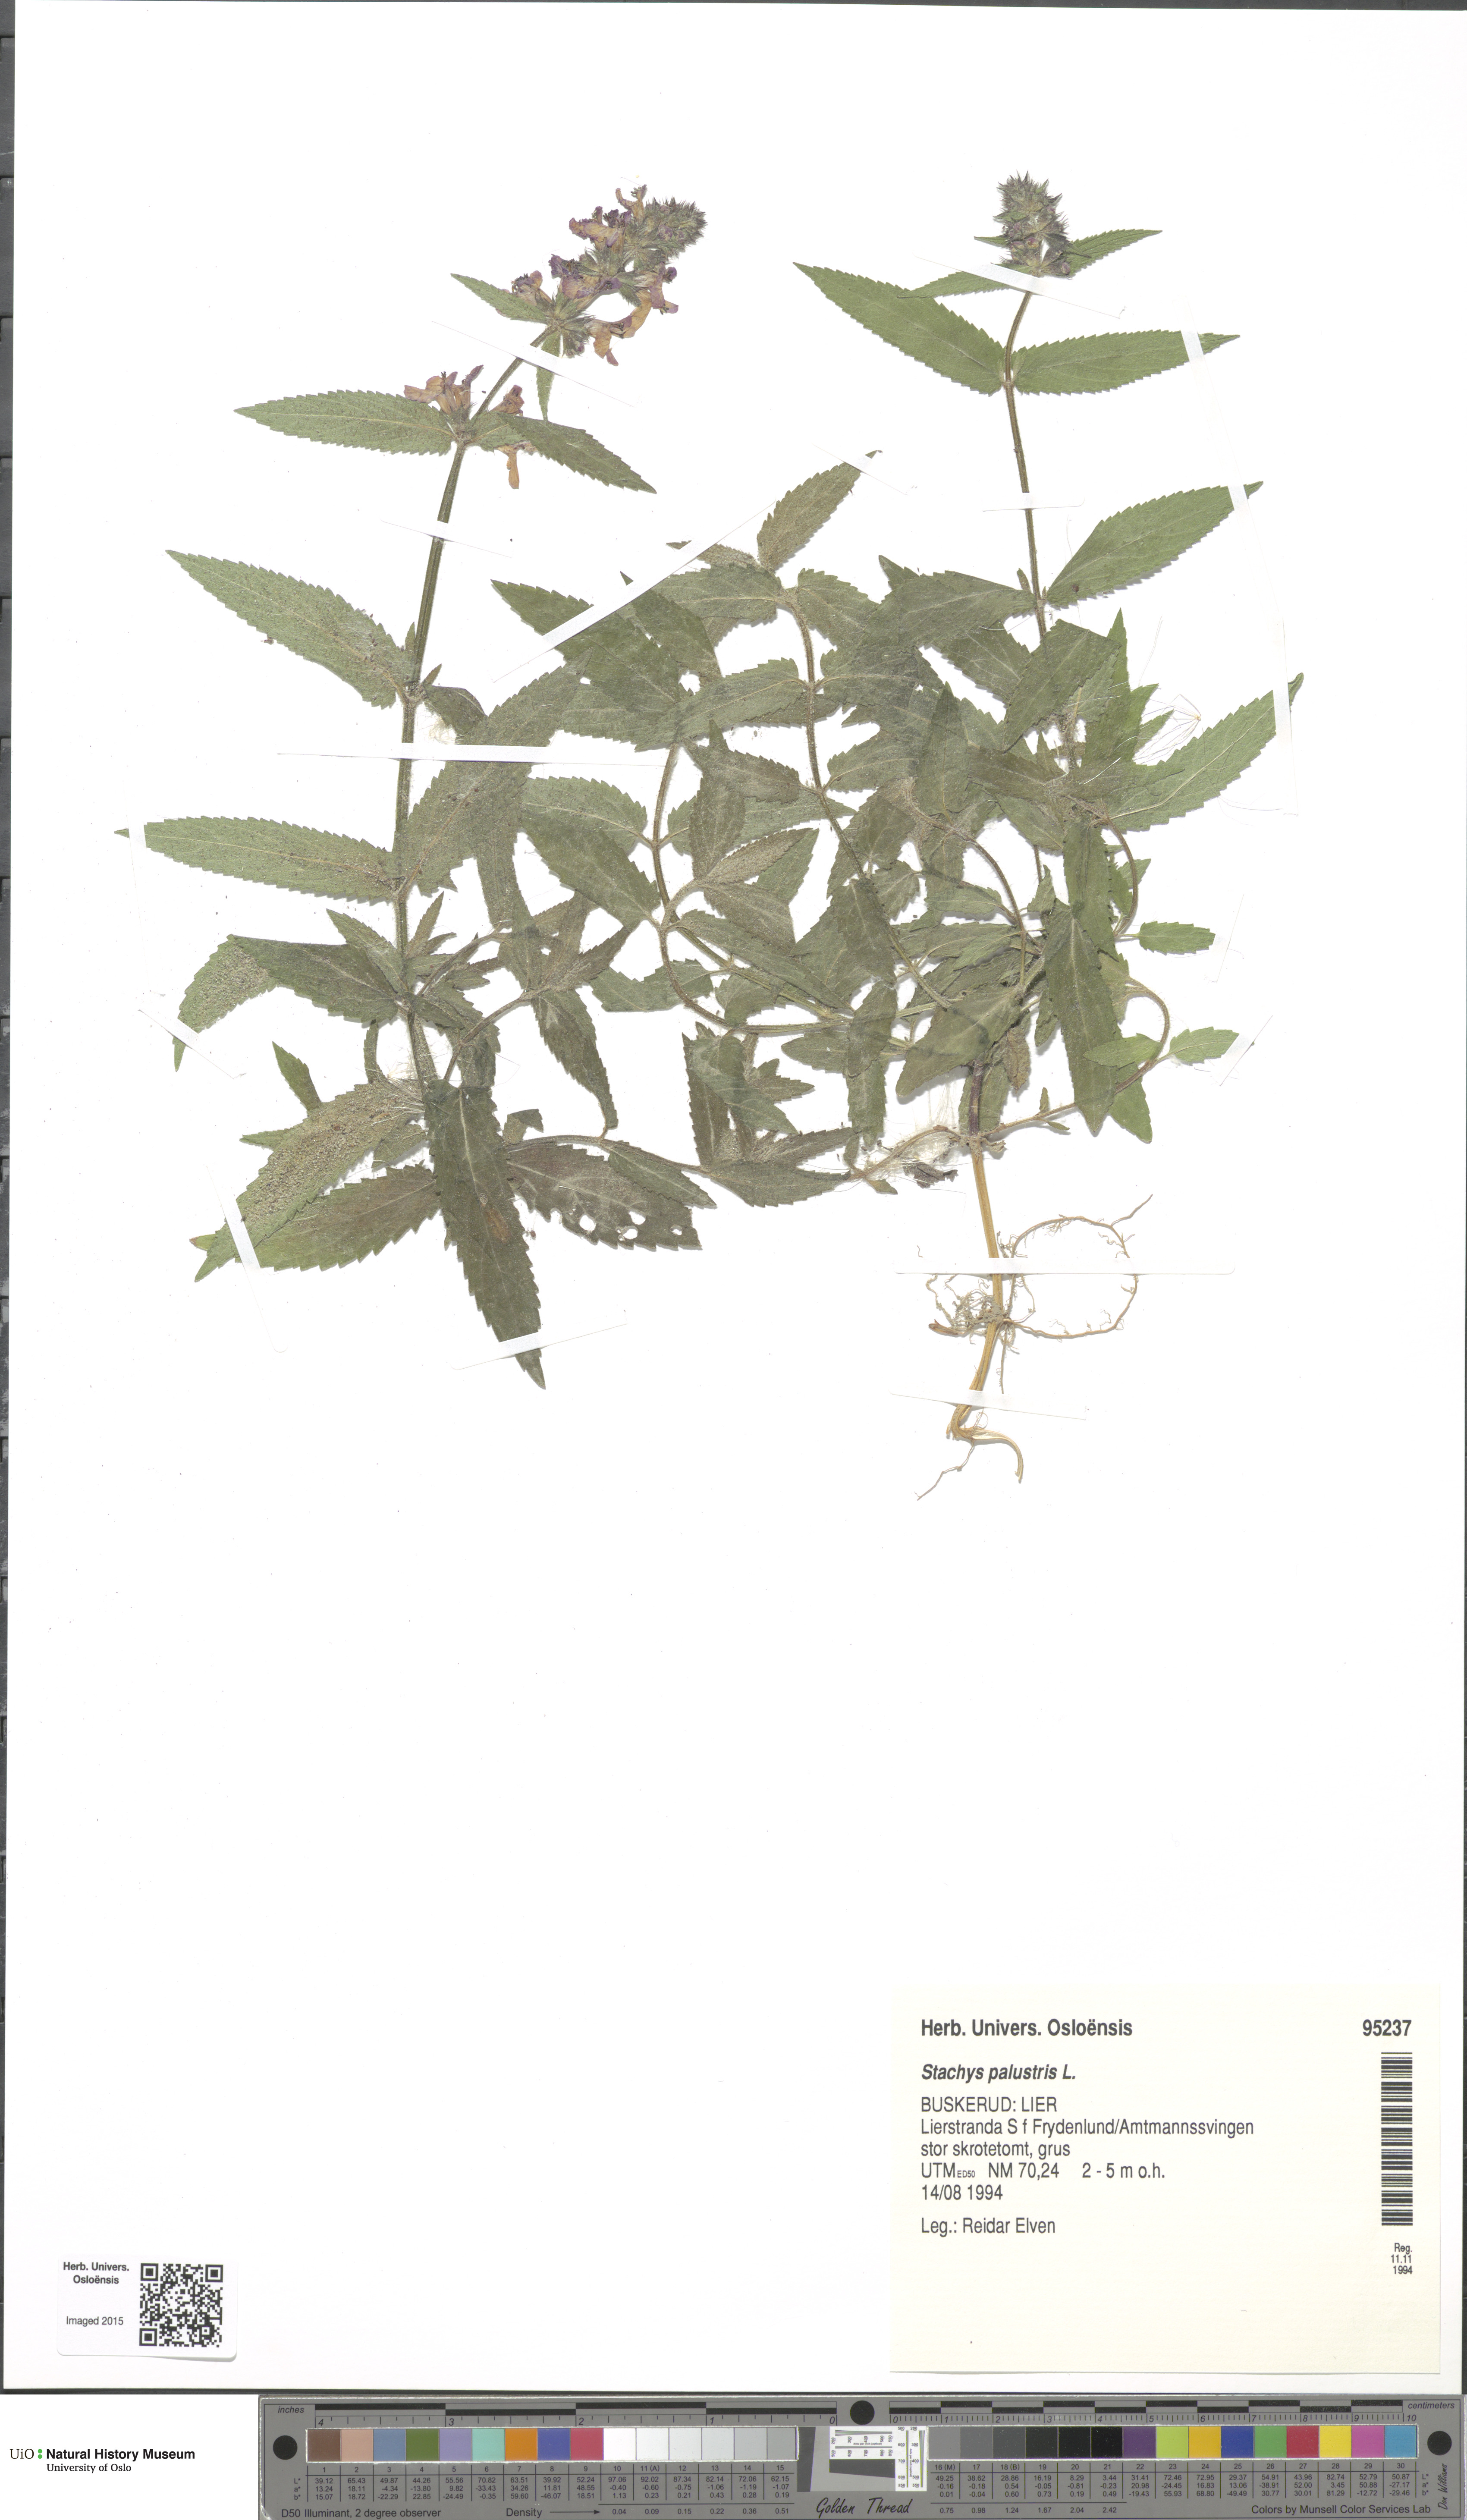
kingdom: Plantae
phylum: Tracheophyta
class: Magnoliopsida
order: Lamiales
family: Lamiaceae
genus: Stachys
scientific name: Stachys palustris
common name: Marsh woundwort
